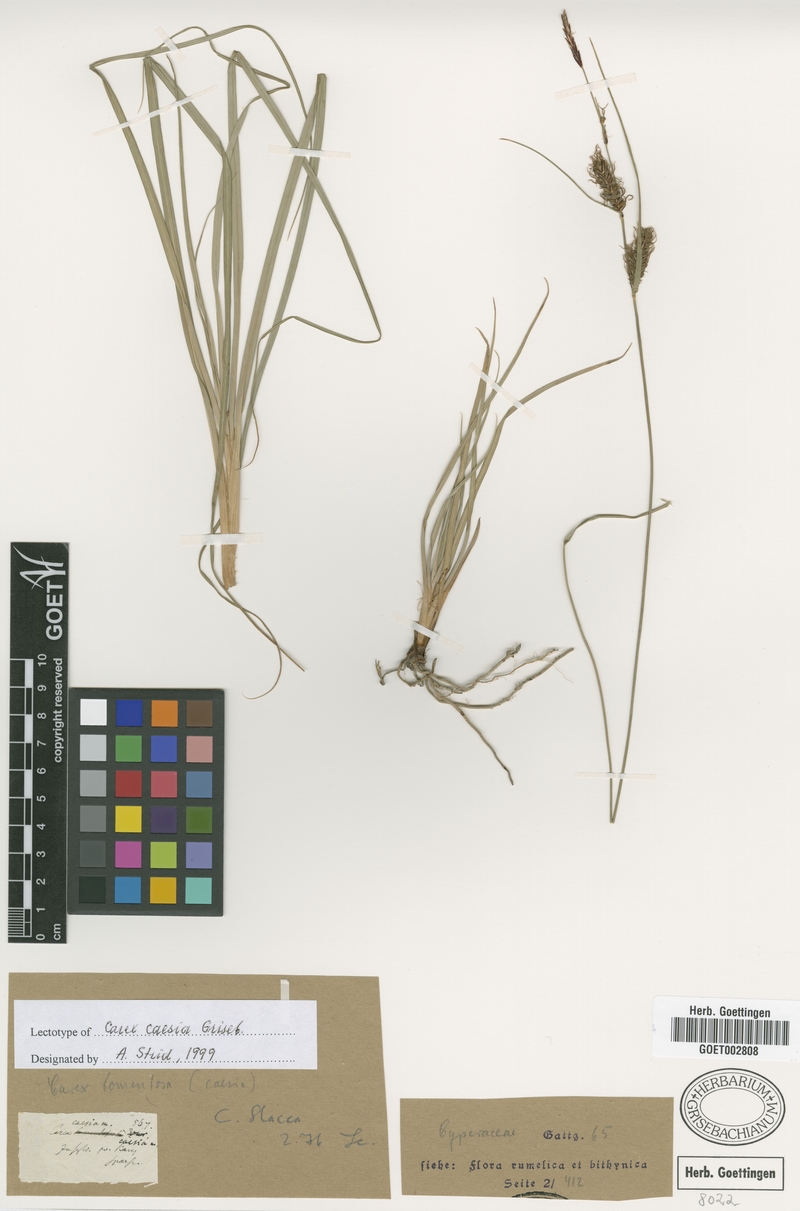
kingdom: Plantae
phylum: Tracheophyta
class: Liliopsida
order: Poales
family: Cyperaceae
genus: Carex
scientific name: Carex flacca
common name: Glaucous sedge
